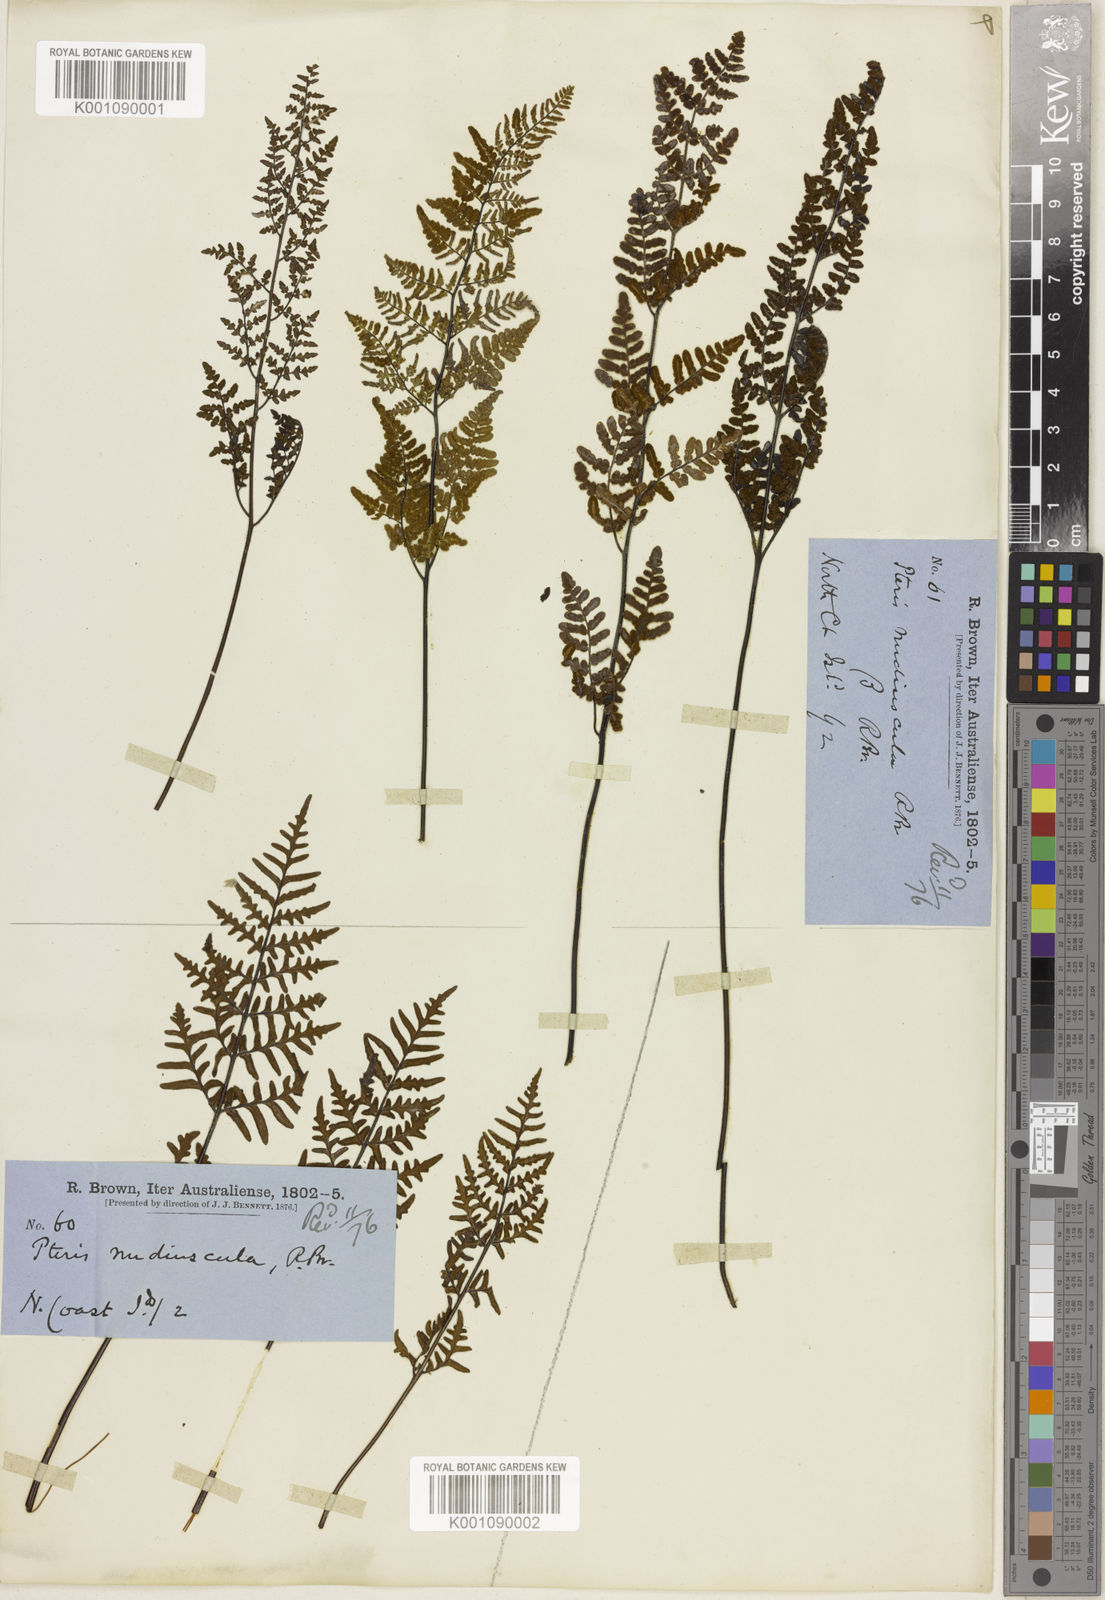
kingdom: Plantae
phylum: Tracheophyta
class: Polypodiopsida
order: Polypodiales
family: Pteridaceae
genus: Gaga
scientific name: Gaga hirsuta
